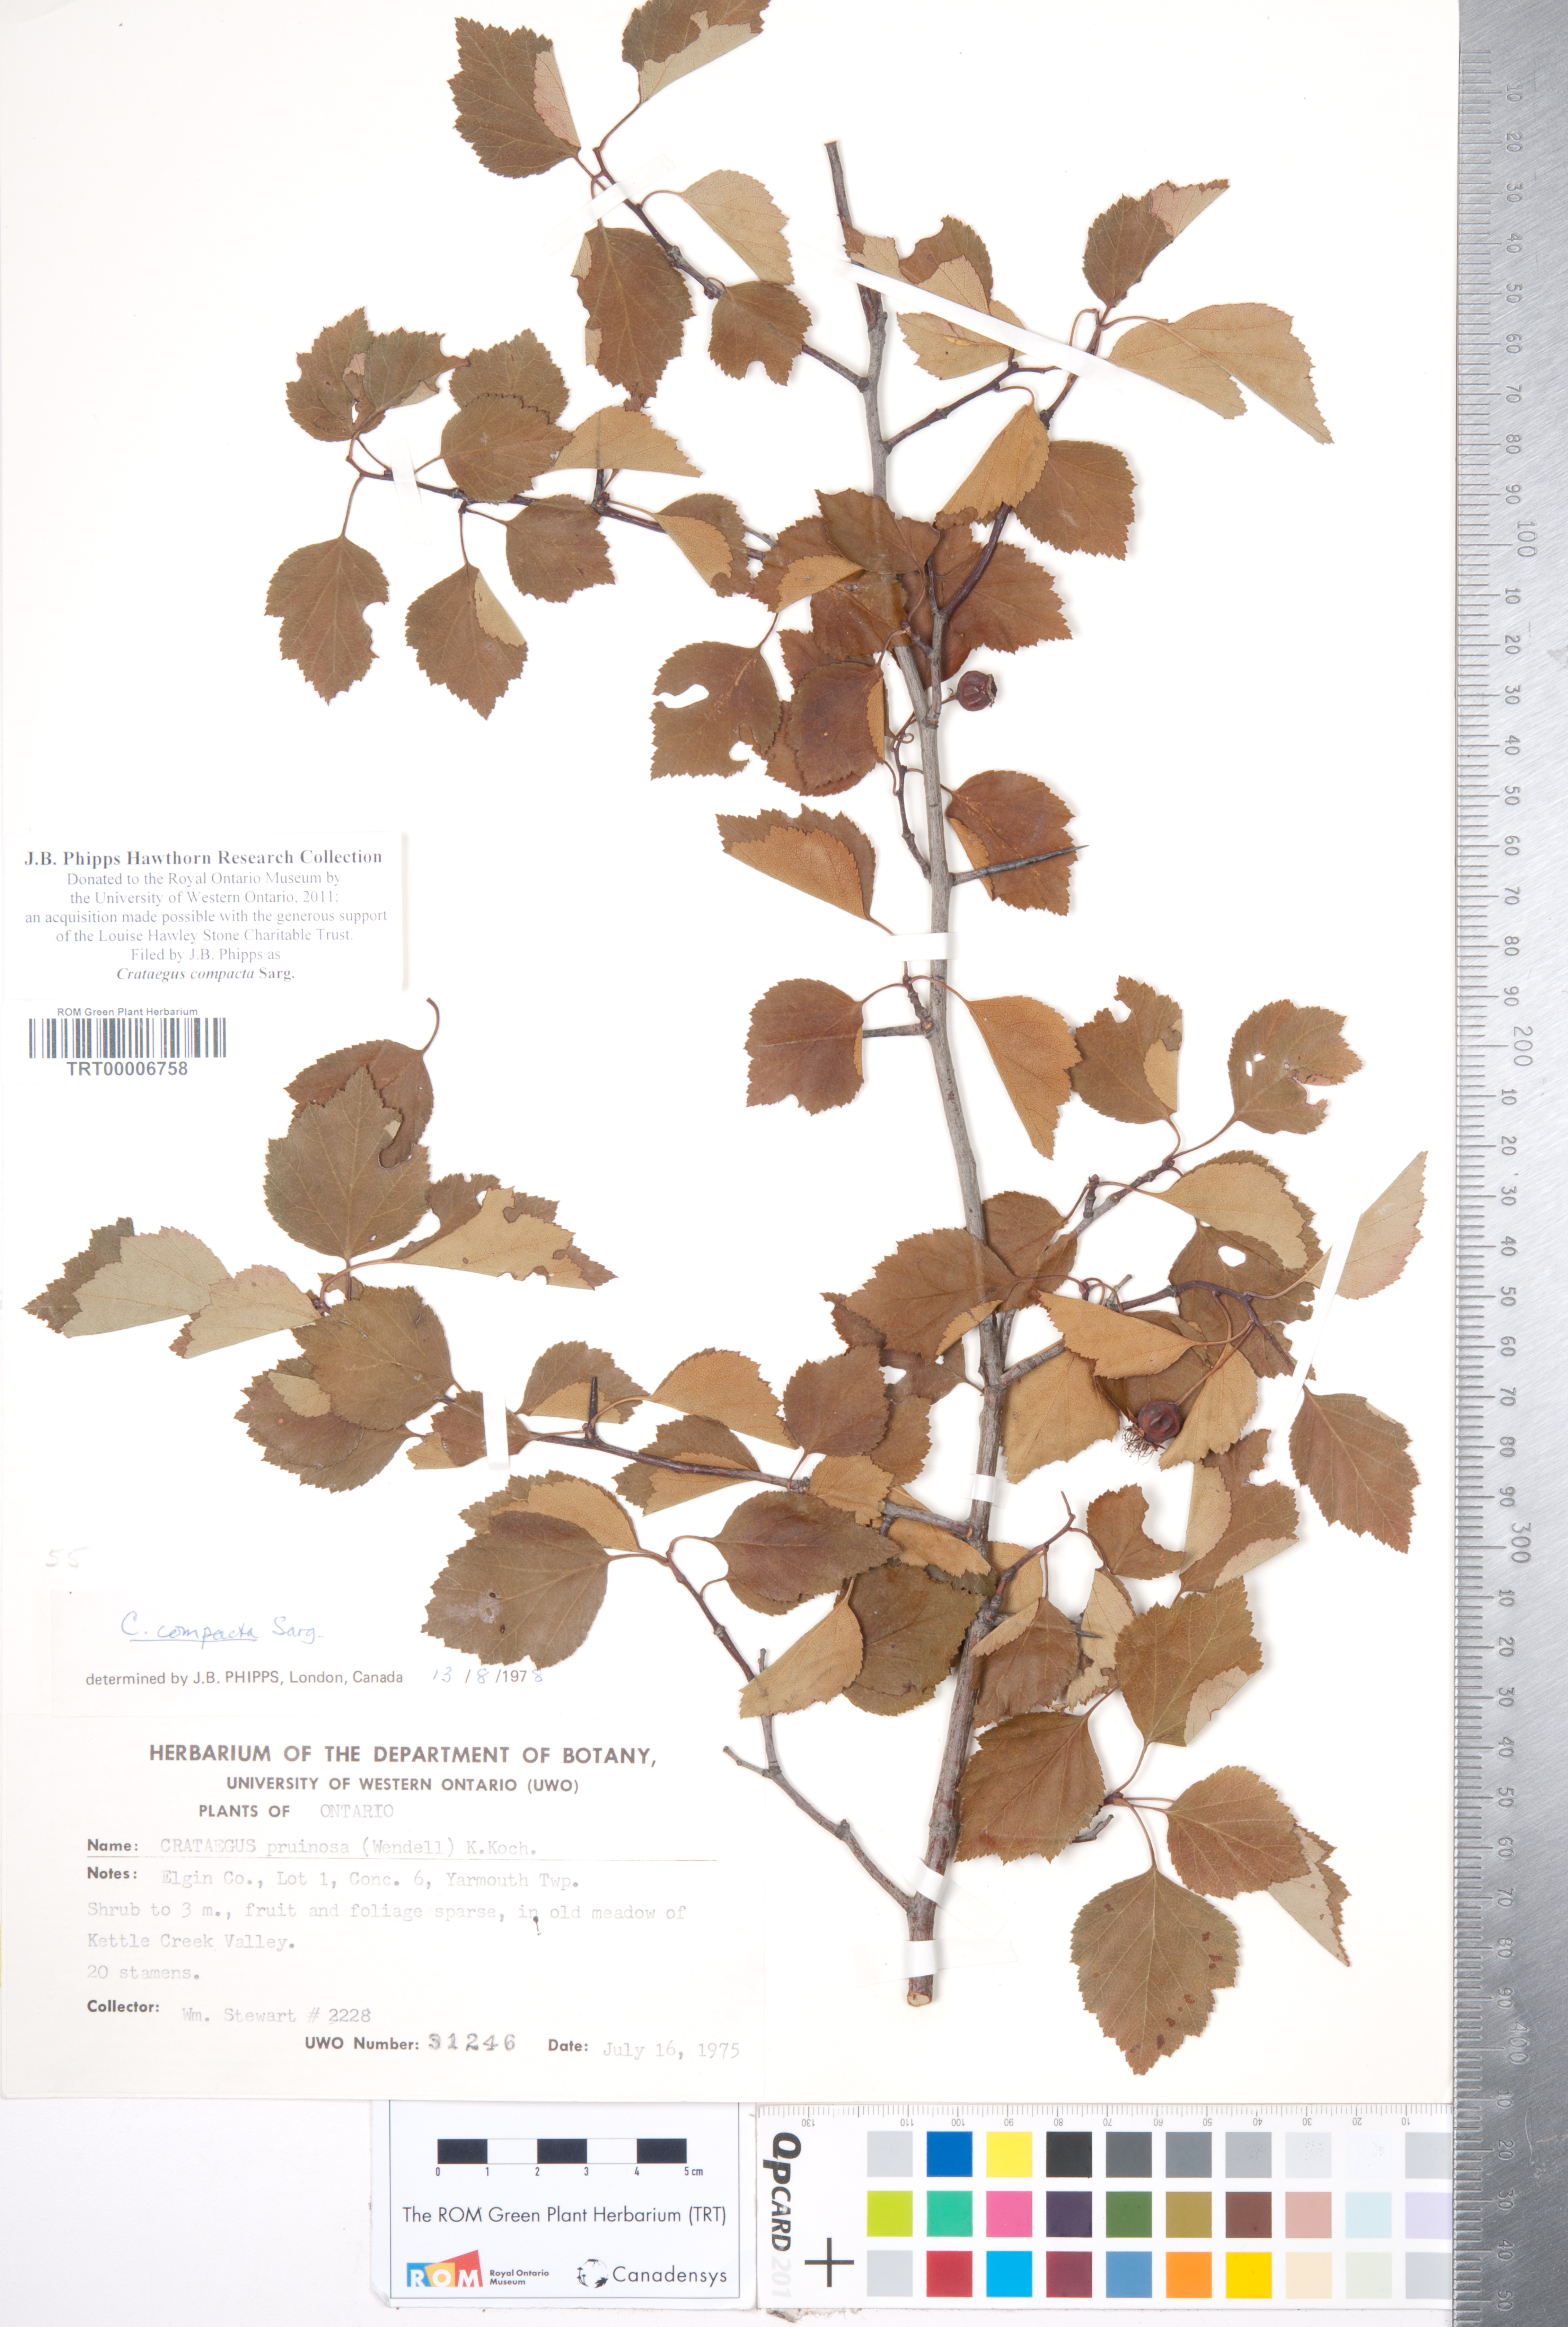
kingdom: Plantae
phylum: Tracheophyta
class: Magnoliopsida
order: Rosales
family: Rosaceae
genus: Crataegus
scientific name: Crataegus compacta
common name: Clustered hawthorn
